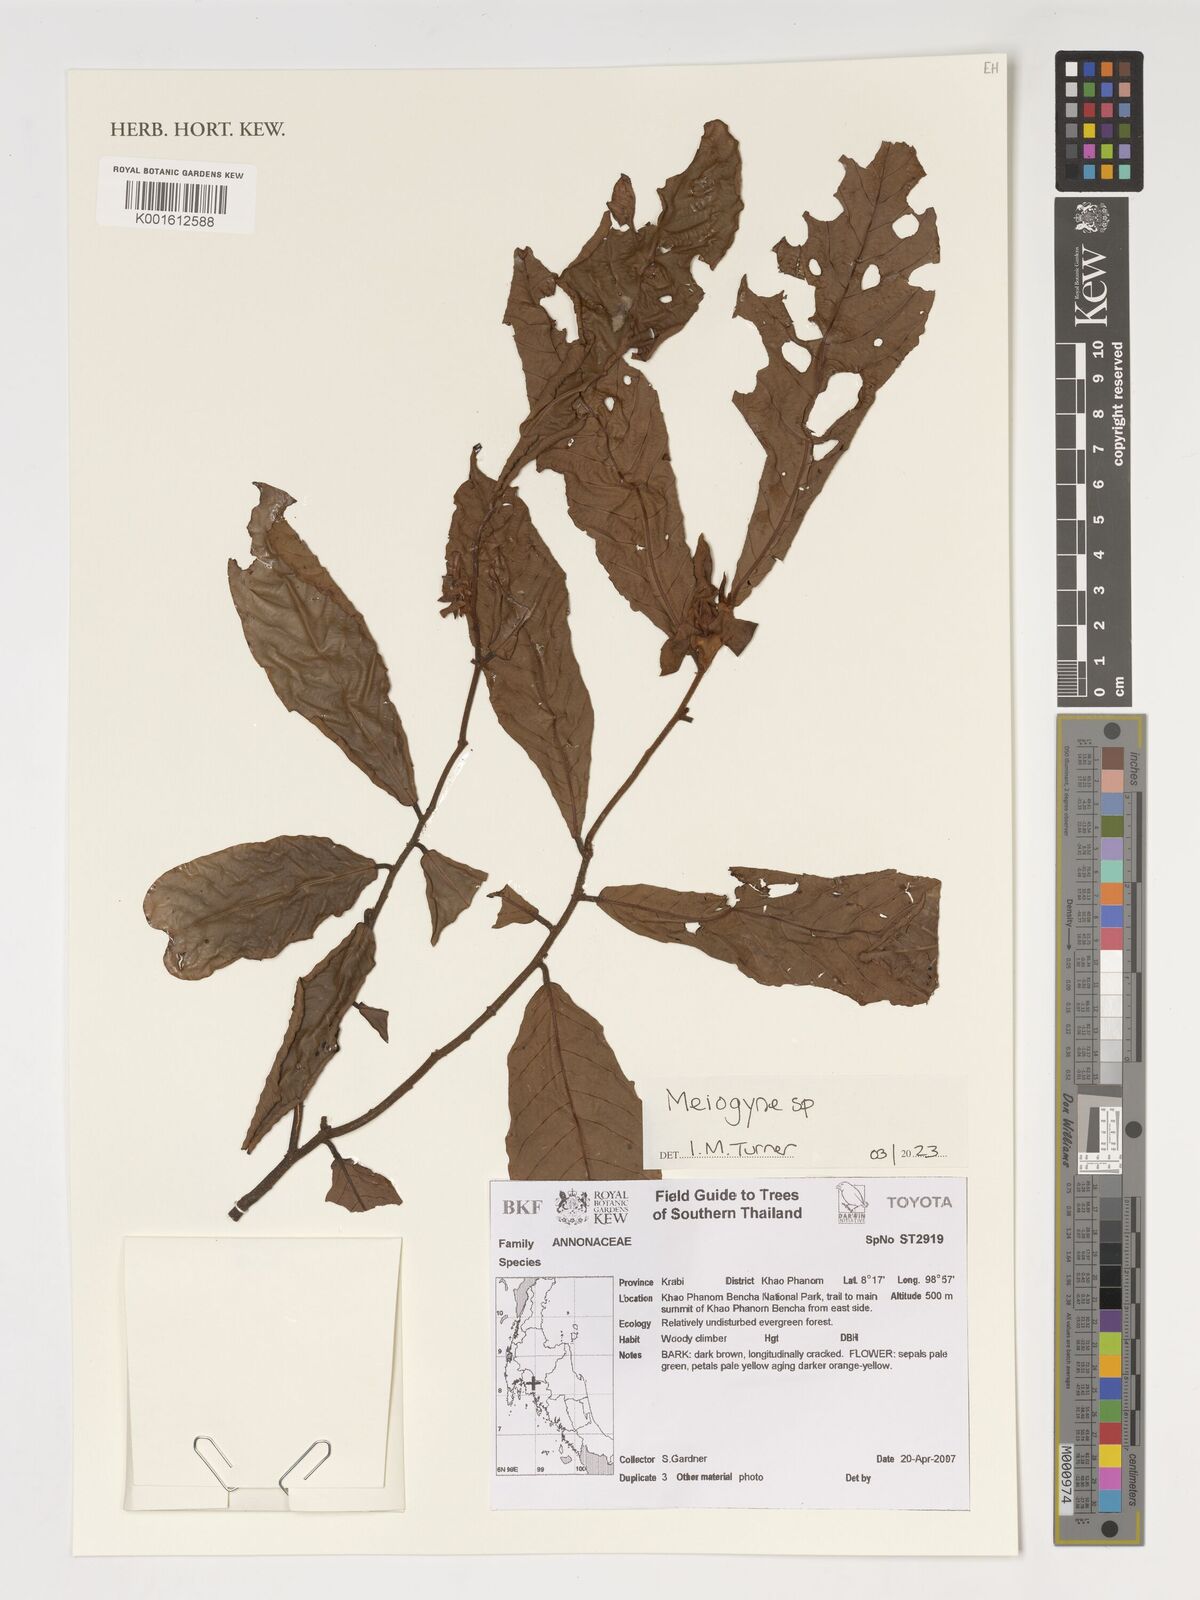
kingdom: Plantae
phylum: Tracheophyta
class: Magnoliopsida
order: Magnoliales
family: Annonaceae
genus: Meiogyne
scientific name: Meiogyne
